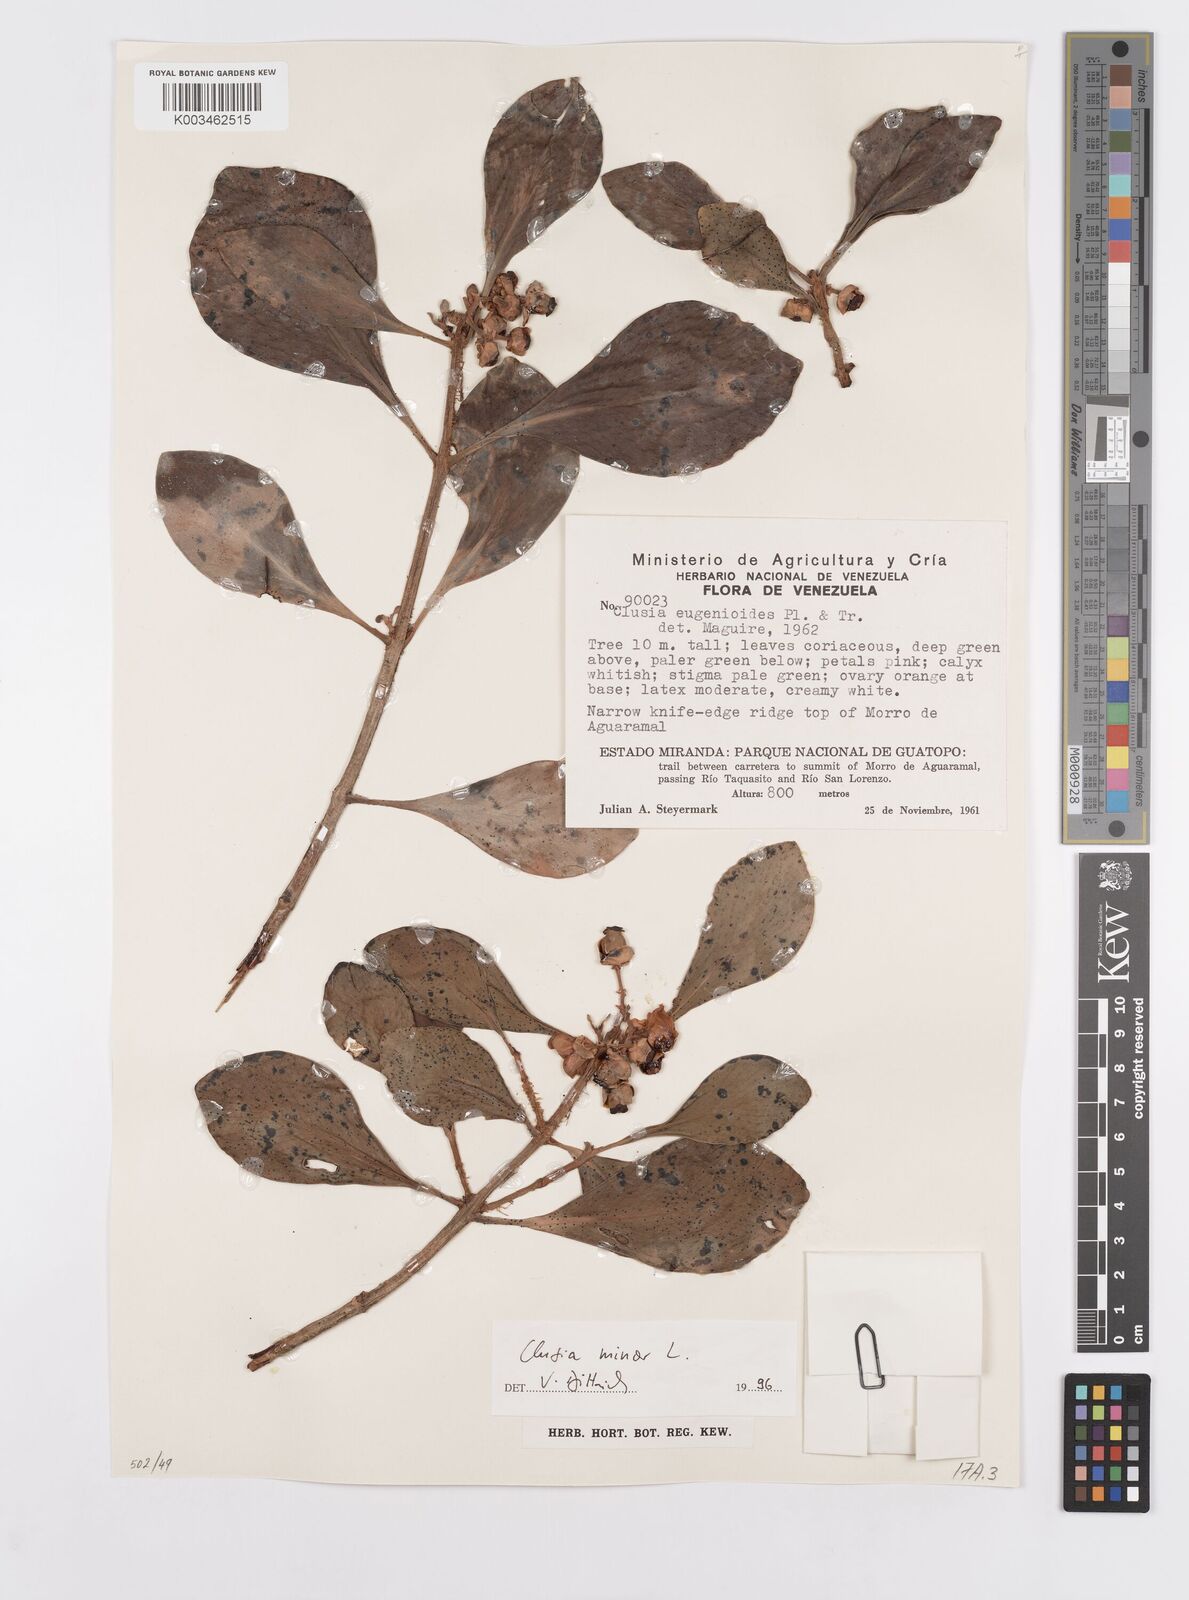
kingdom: Plantae
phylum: Tracheophyta
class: Magnoliopsida
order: Malpighiales
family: Clusiaceae
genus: Clusia
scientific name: Clusia minor
